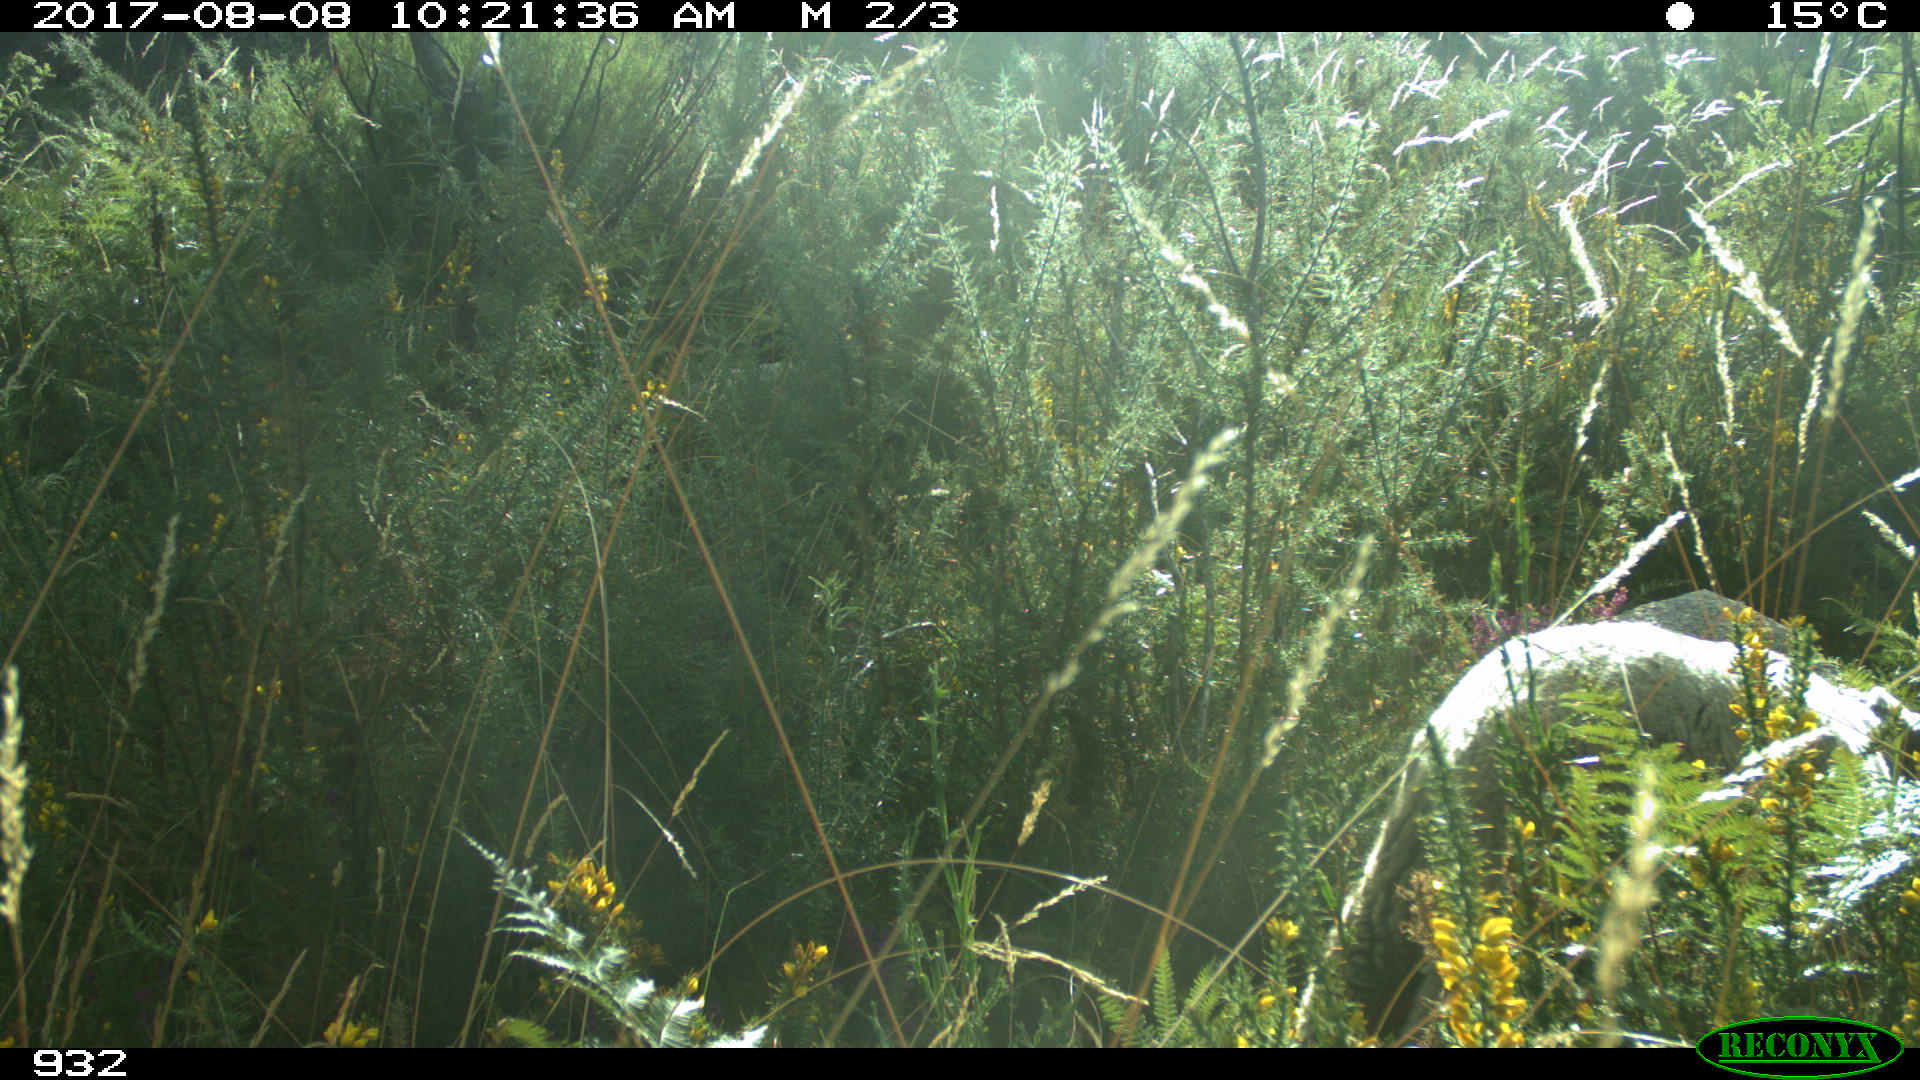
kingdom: Animalia
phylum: Chordata
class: Mammalia
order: Artiodactyla
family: Bovidae
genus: Ovis
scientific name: Ovis aries
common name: Domestic sheep
